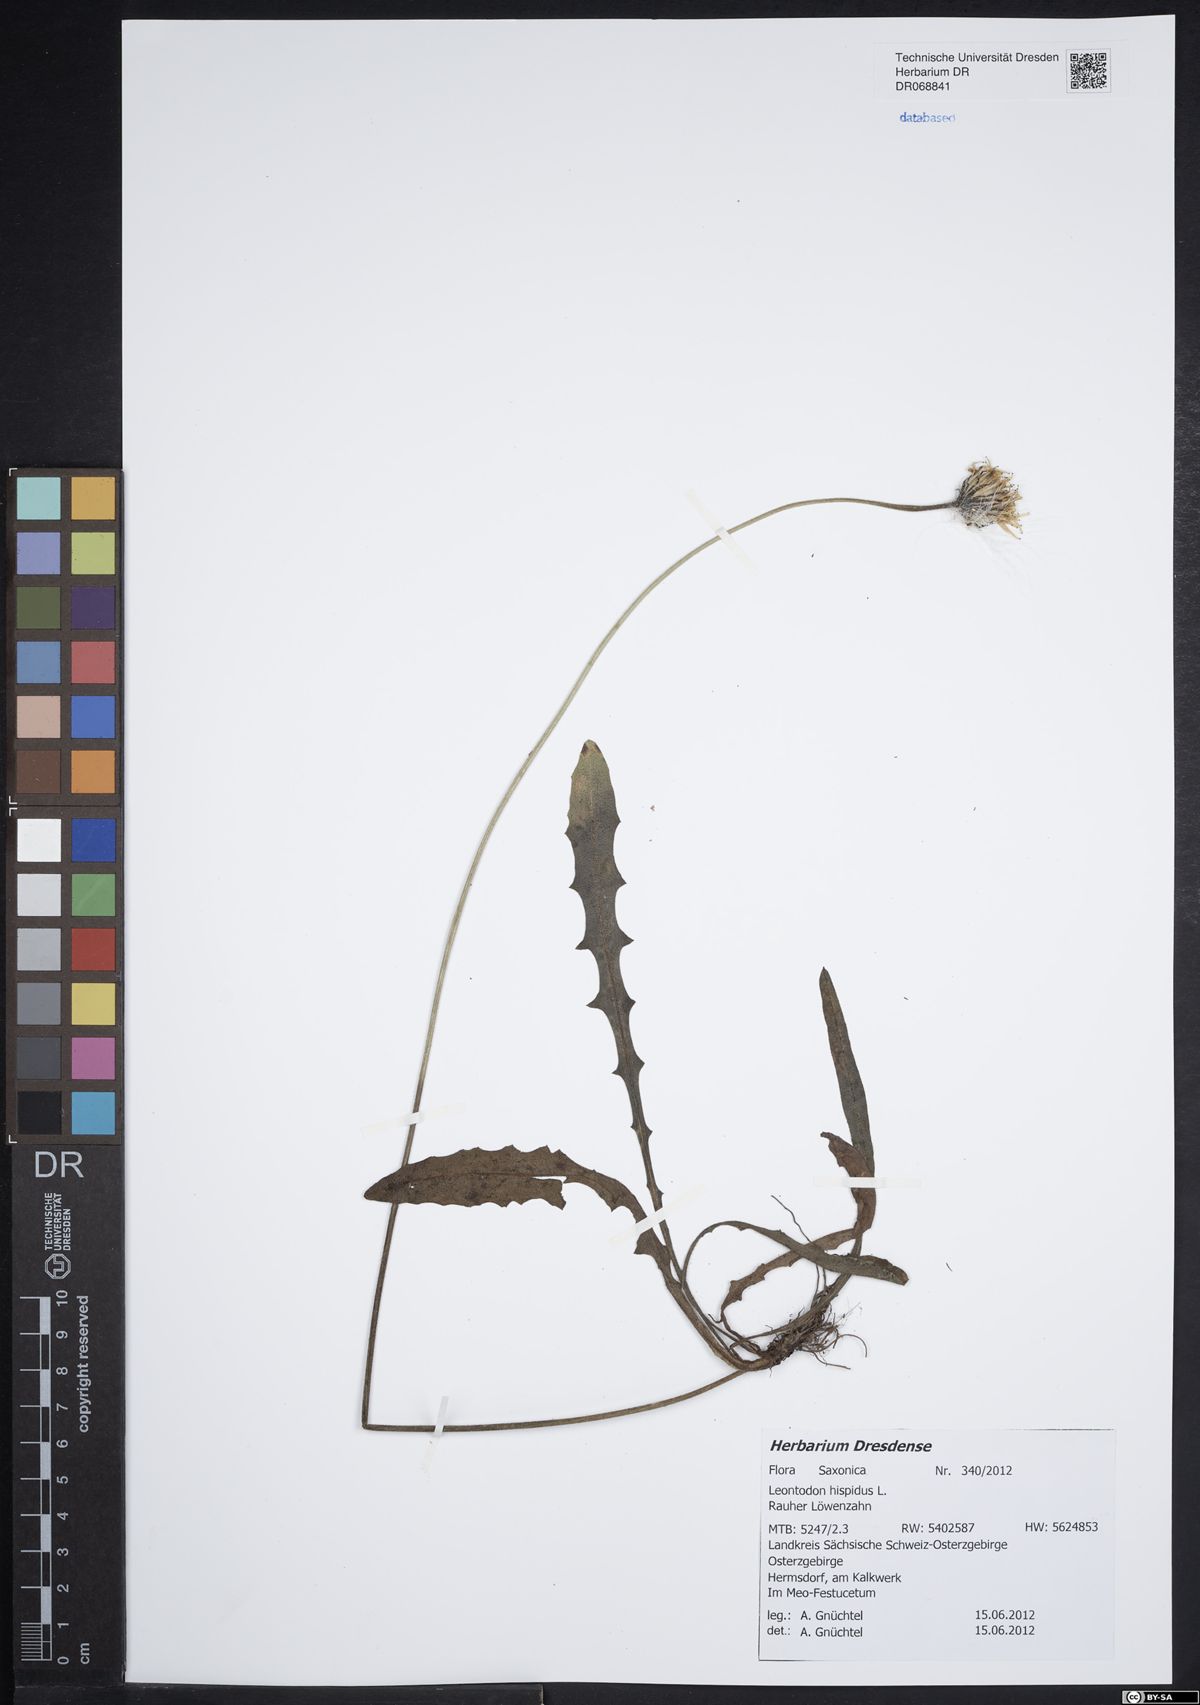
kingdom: Plantae
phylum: Tracheophyta
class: Magnoliopsida
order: Asterales
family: Asteraceae
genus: Leontodon
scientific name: Leontodon hispidus
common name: Rough hawkbit
